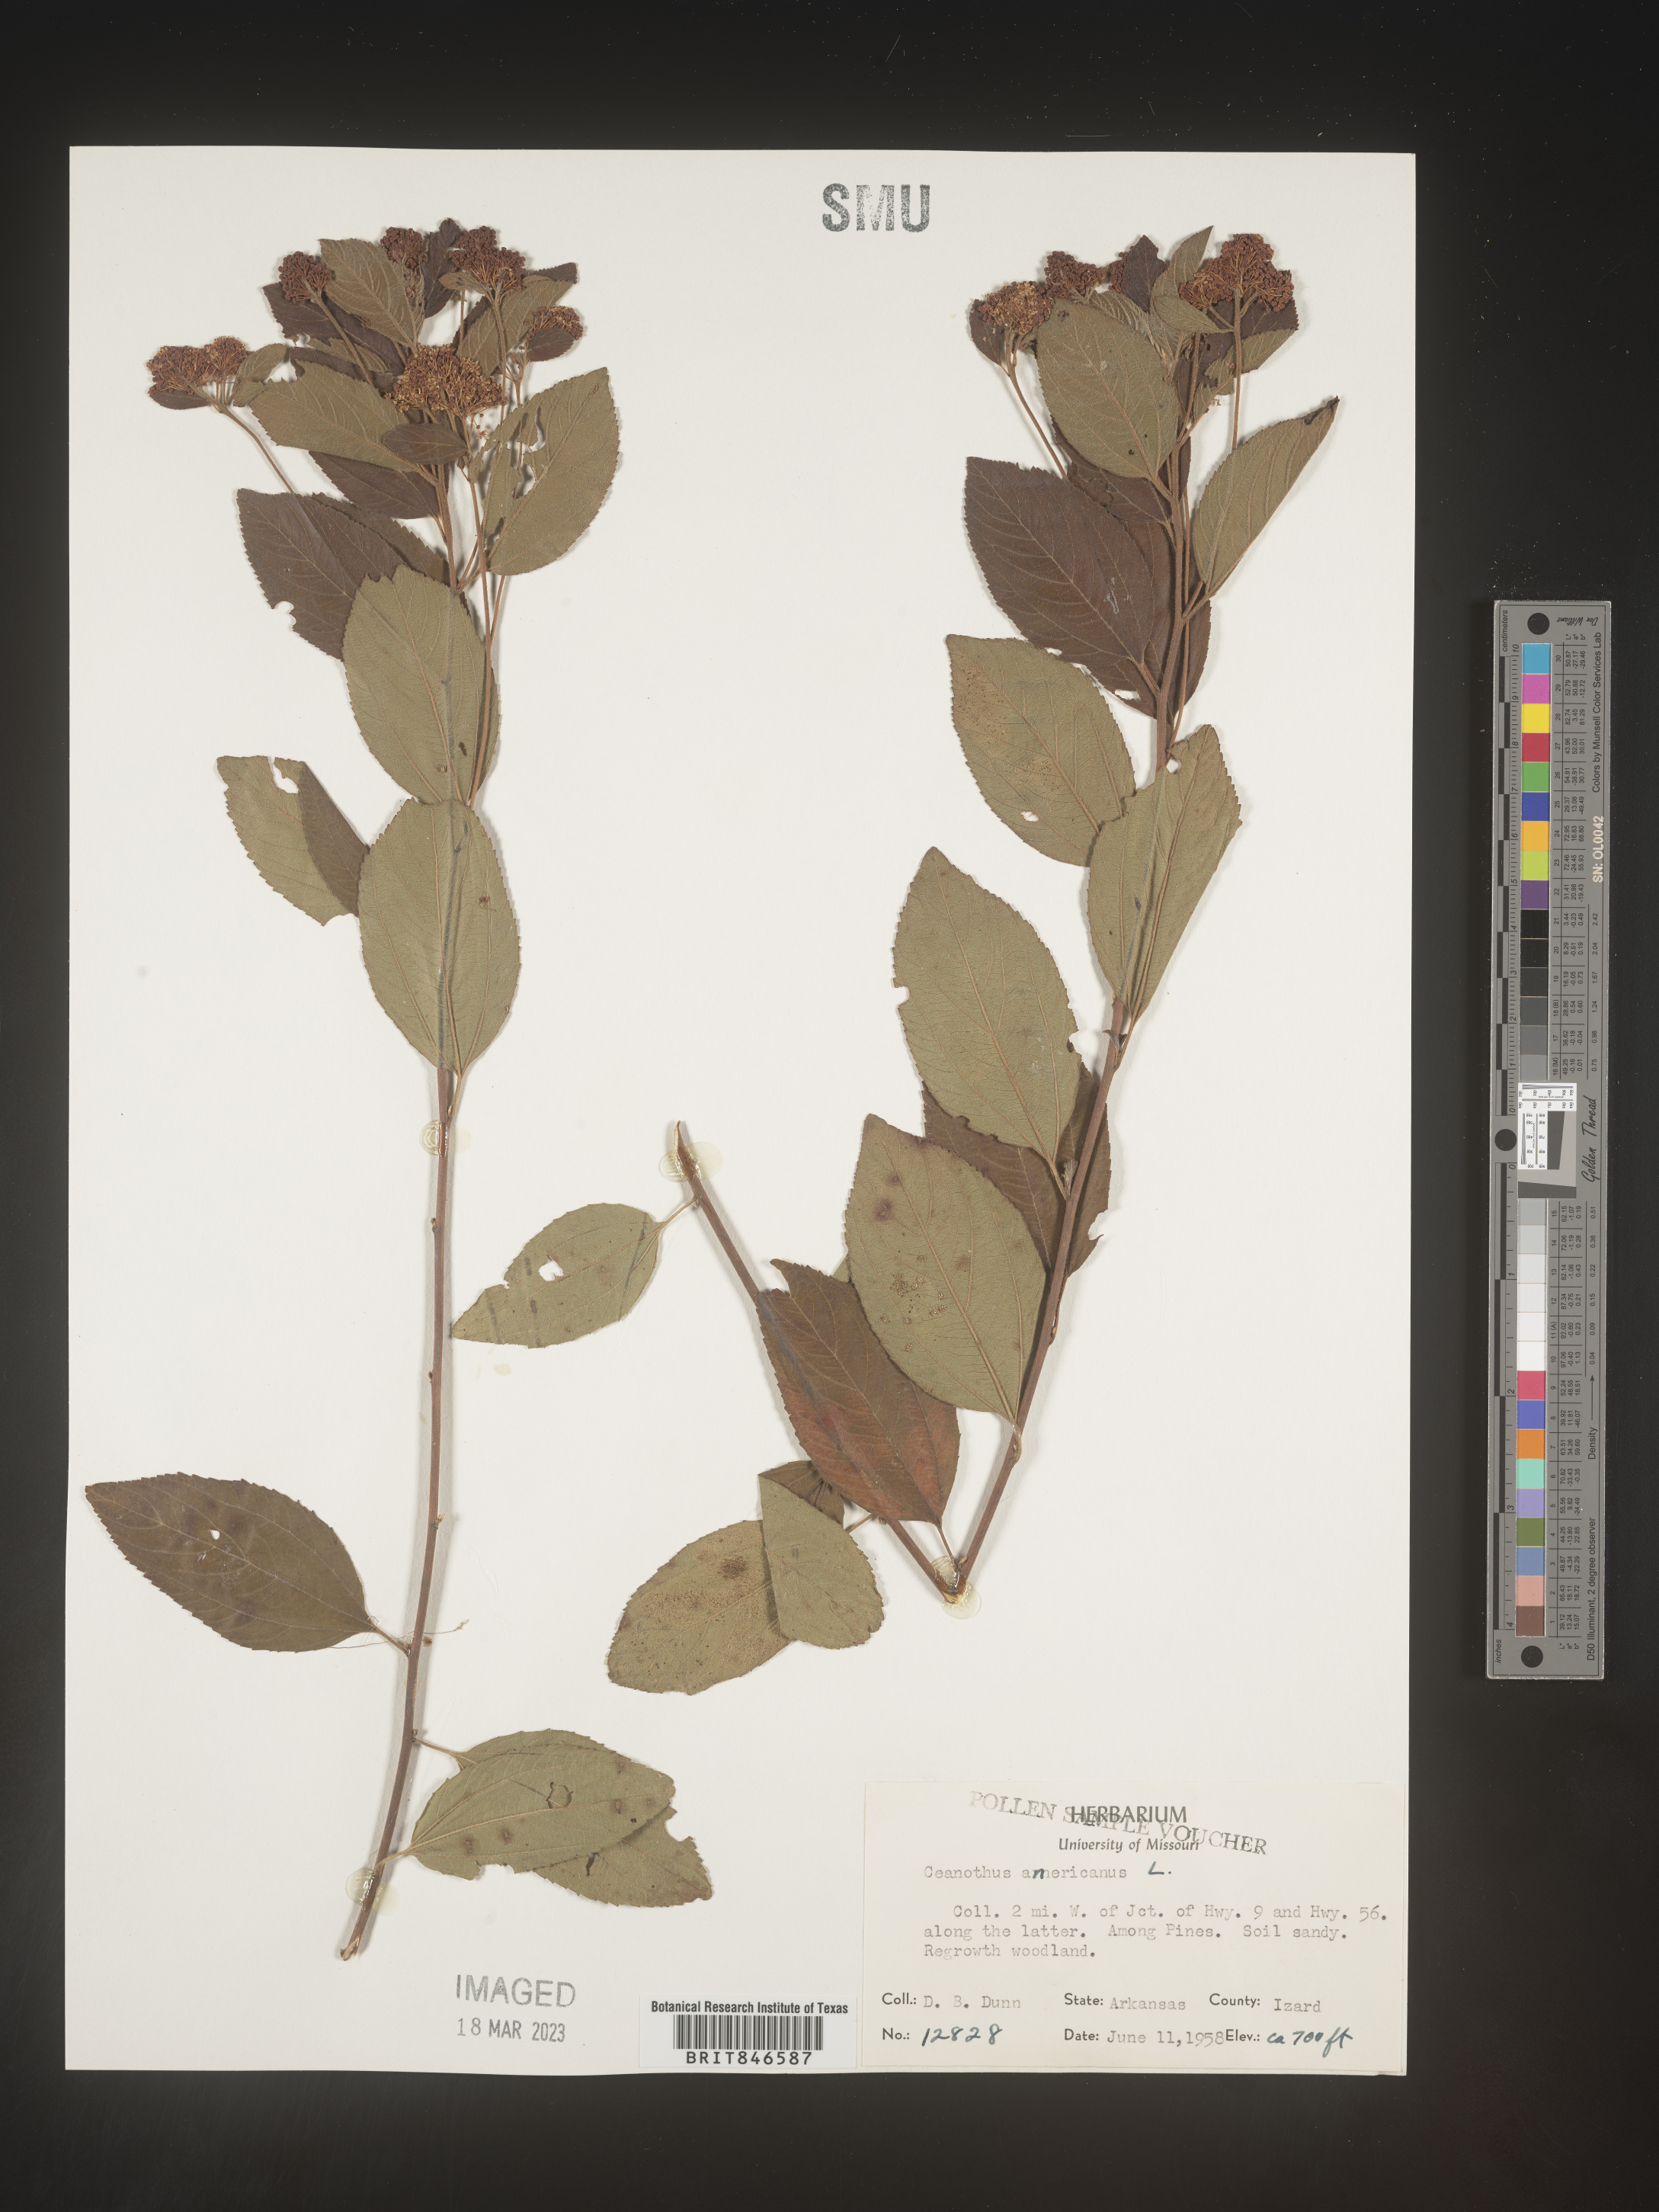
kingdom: Plantae
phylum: Tracheophyta
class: Magnoliopsida
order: Rosales
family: Rhamnaceae
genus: Ceanothus
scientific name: Ceanothus americanus
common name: Redroot
